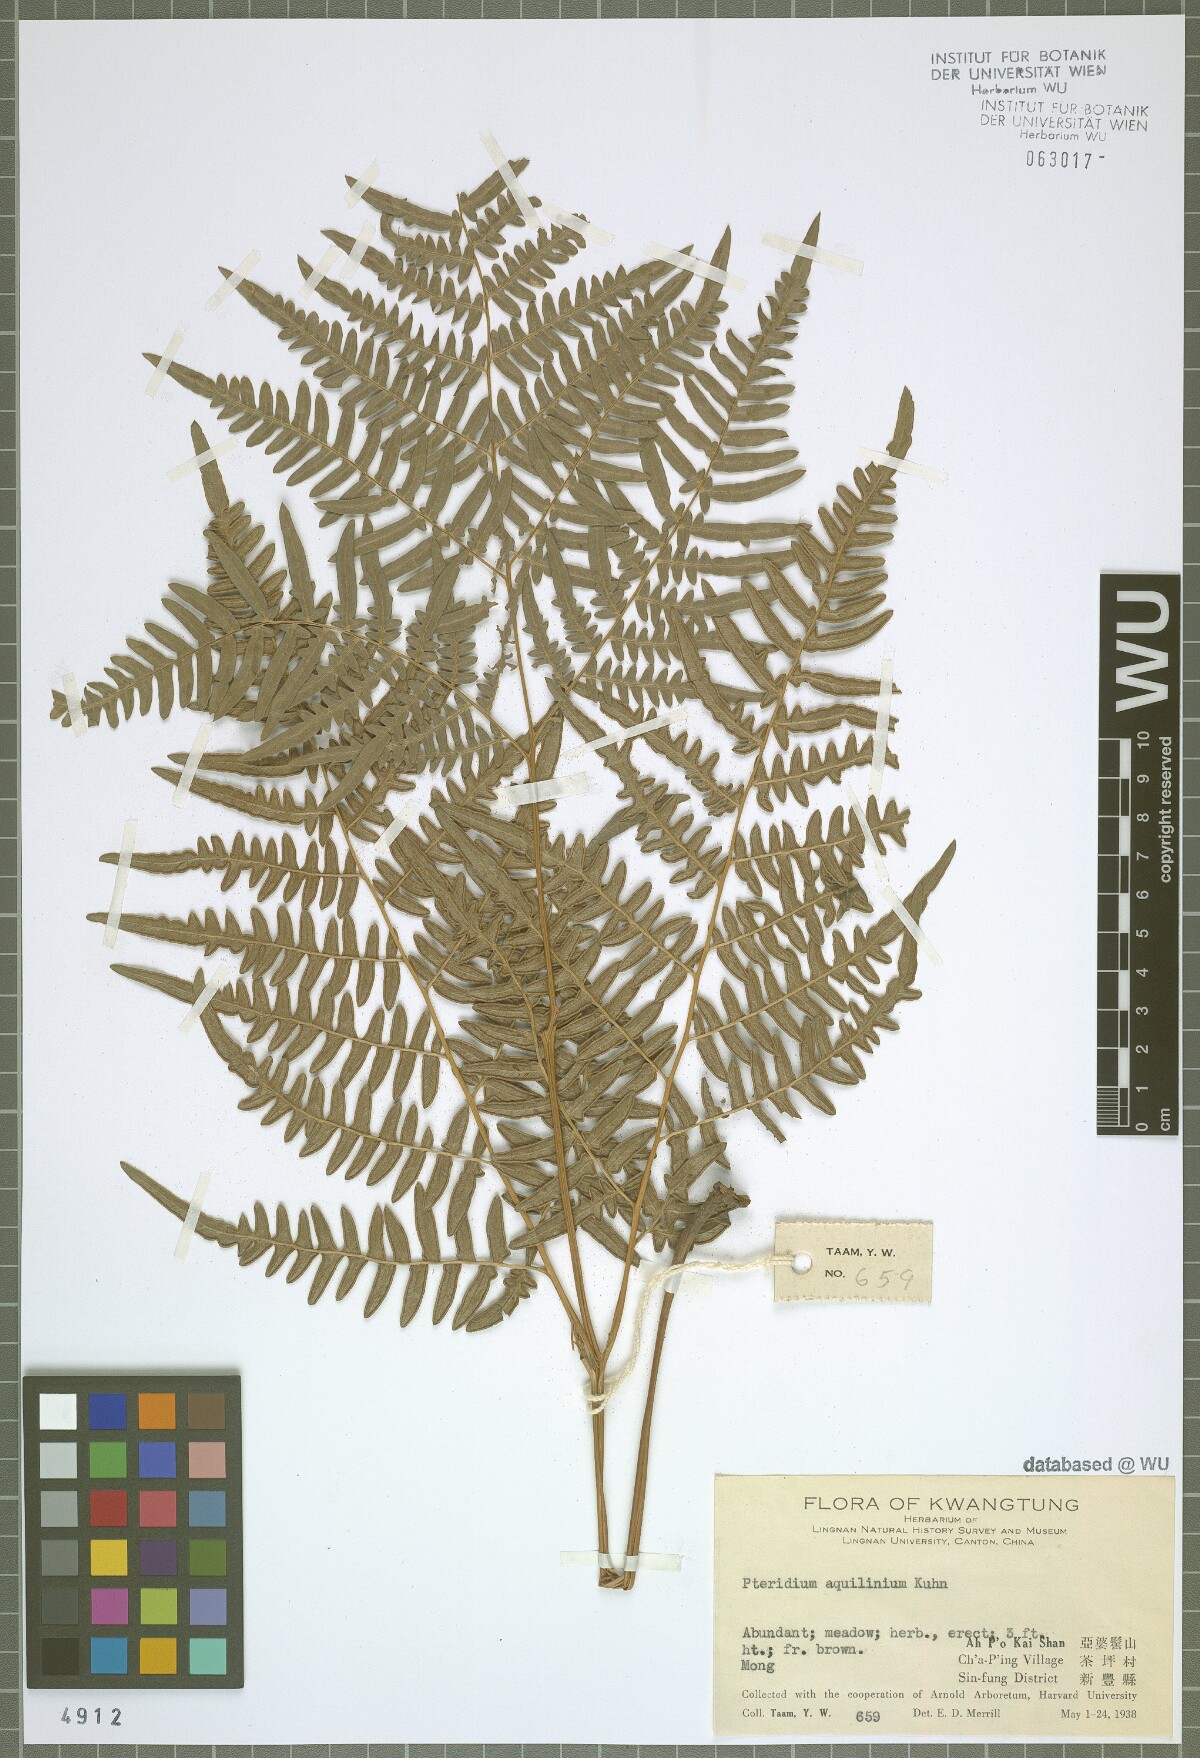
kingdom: Plantae
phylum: Tracheophyta
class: Polypodiopsida
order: Polypodiales
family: Dennstaedtiaceae
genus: Pteridium
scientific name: Pteridium aquilinum
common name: Bracken
